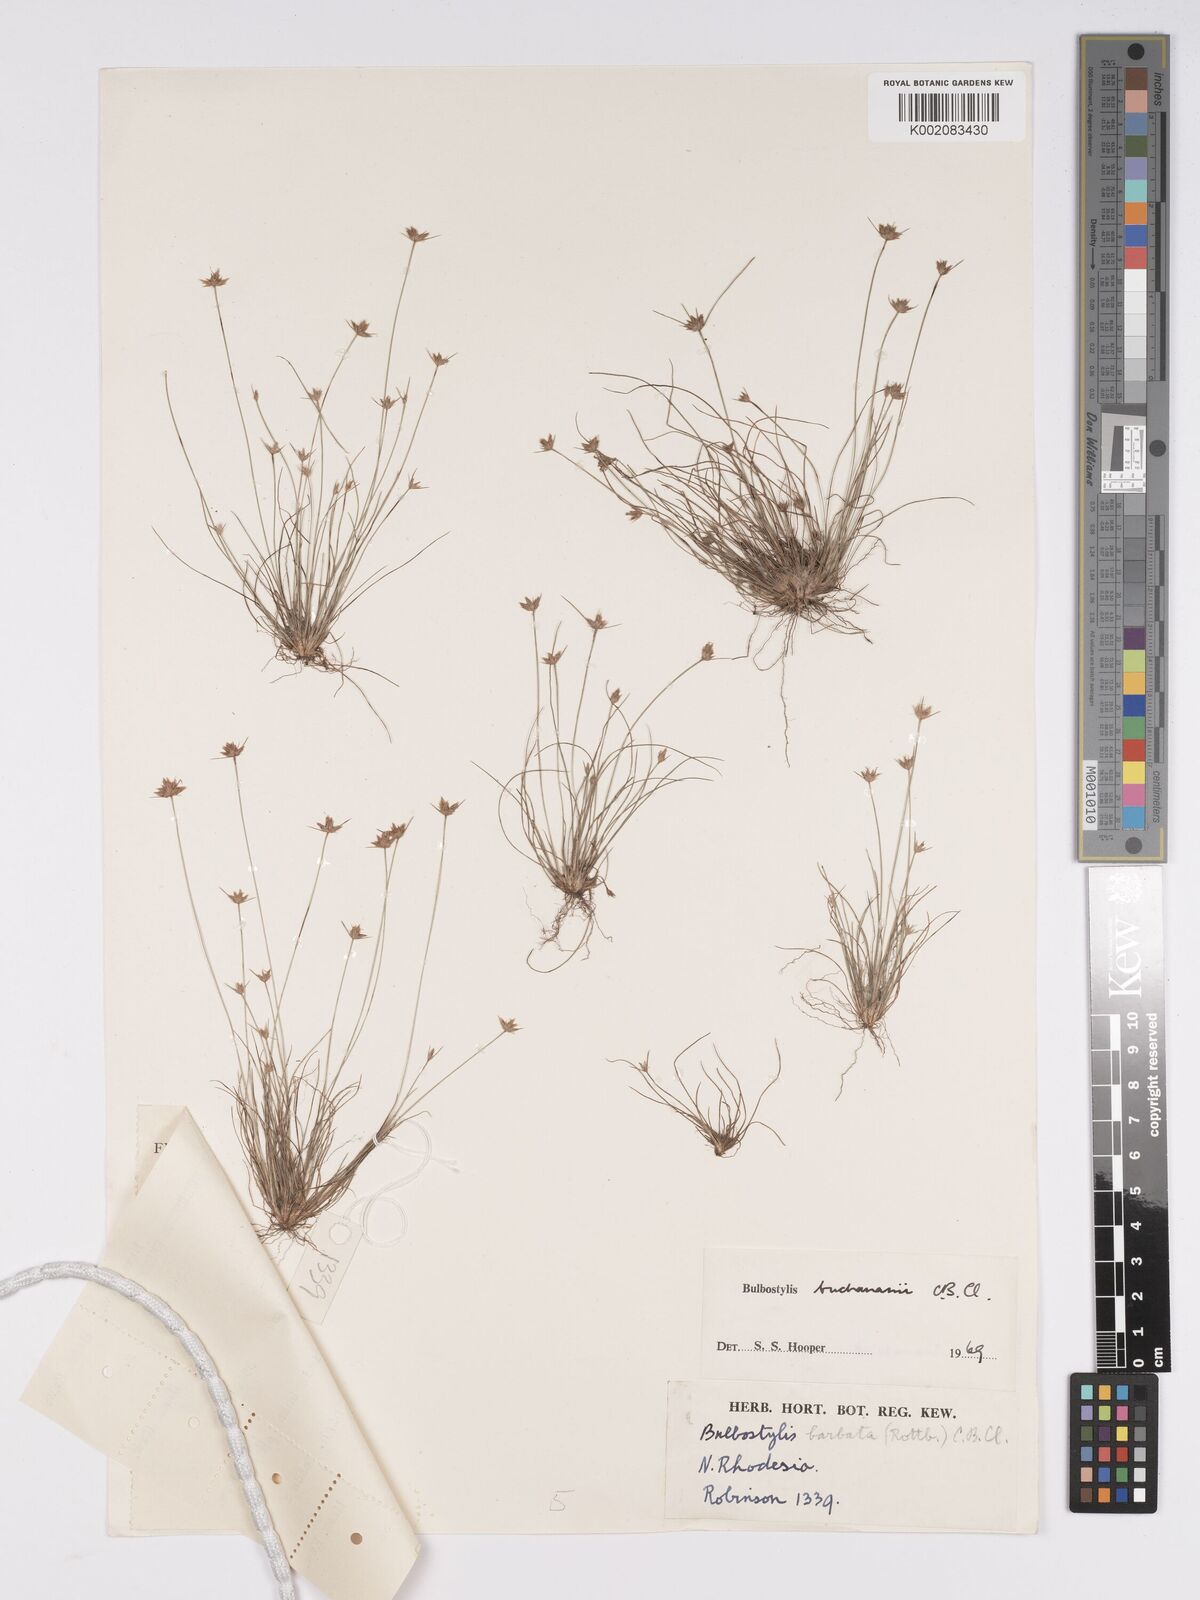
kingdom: Plantae
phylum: Tracheophyta
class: Liliopsida
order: Poales
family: Cyperaceae
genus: Bulbostylis
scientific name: Bulbostylis buchananii
